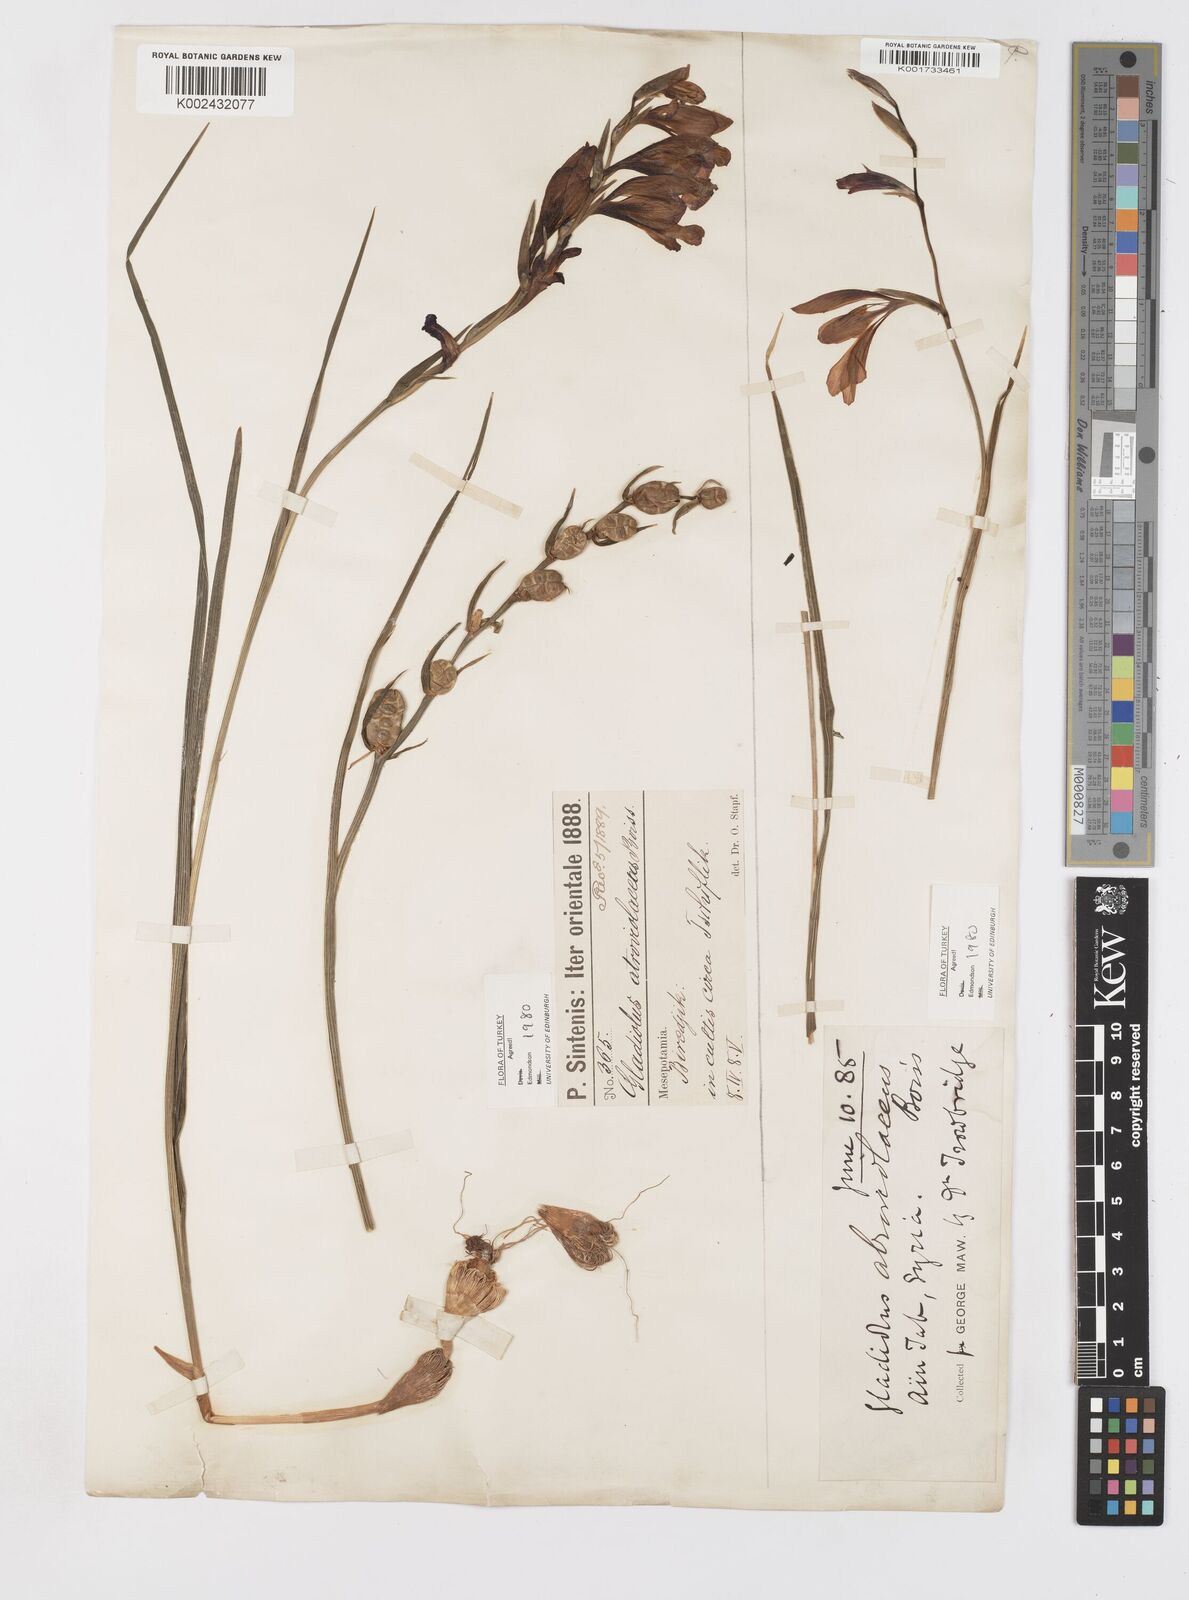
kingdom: Plantae
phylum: Tracheophyta
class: Liliopsida
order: Asparagales
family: Iridaceae
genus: Gladiolus
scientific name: Gladiolus atroviolaceus
